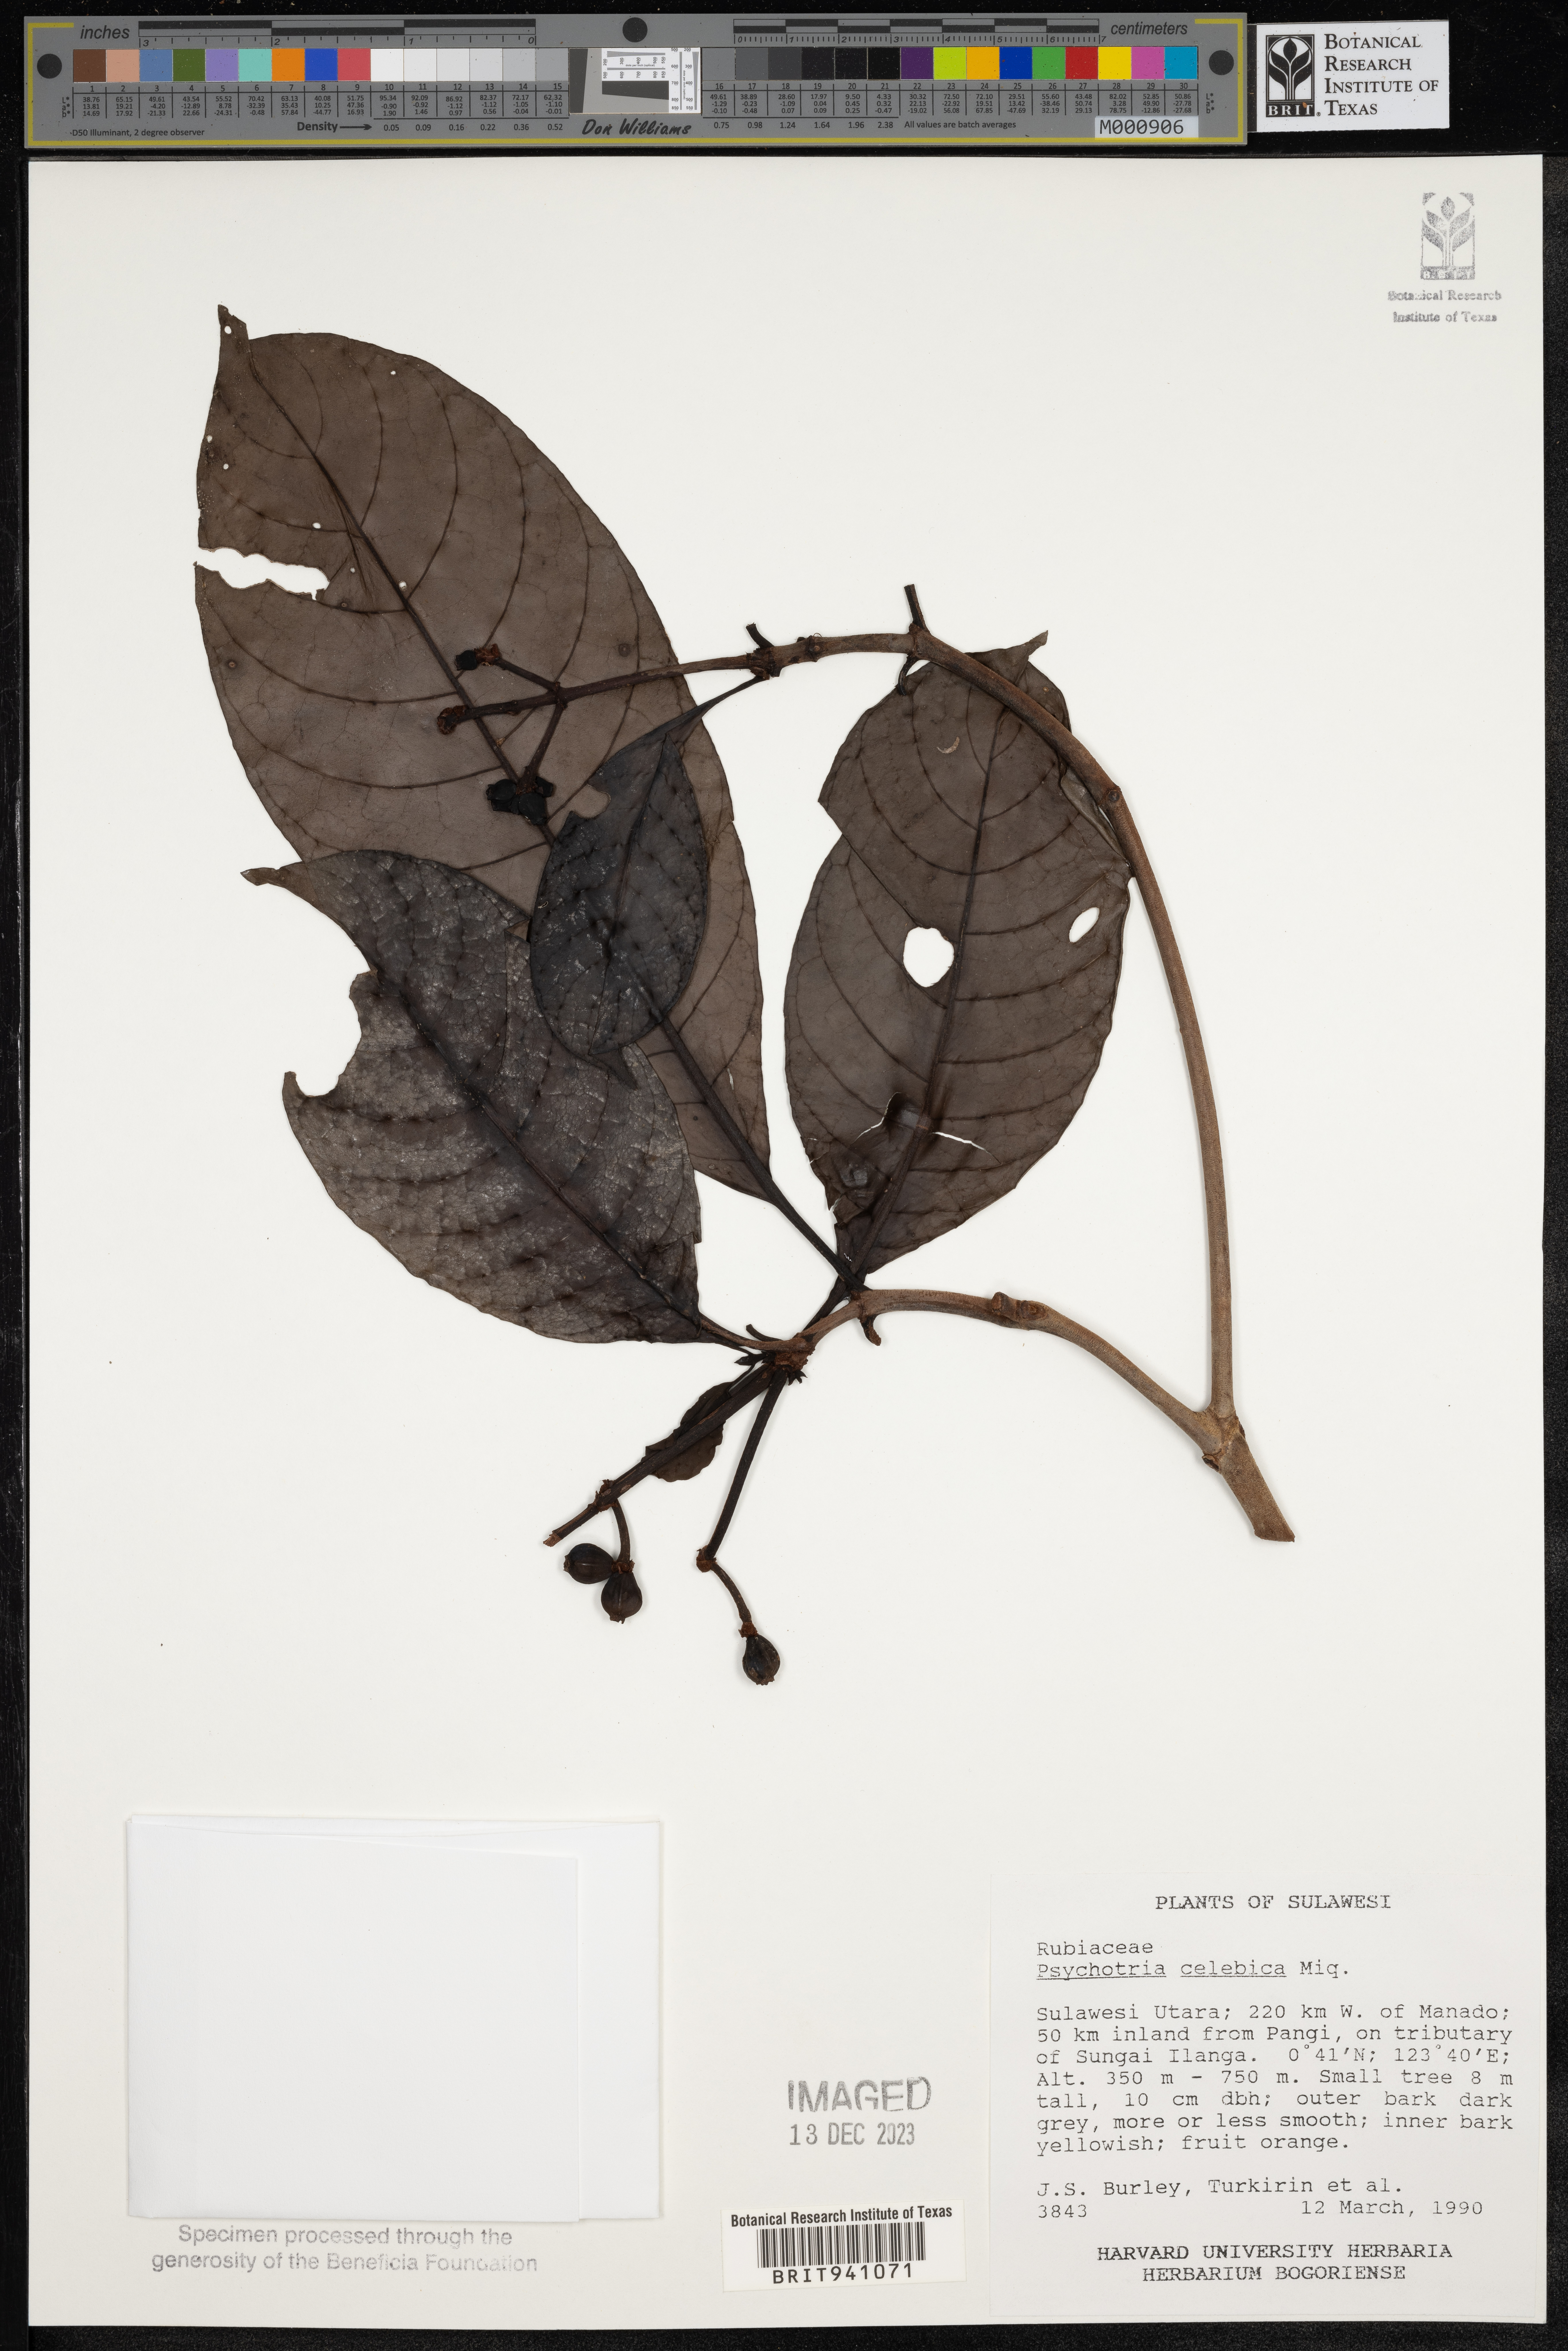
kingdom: Plantae
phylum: Tracheophyta
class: Magnoliopsida
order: Gentianales
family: Rubiaceae
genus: Psychotria
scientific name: Psychotria
